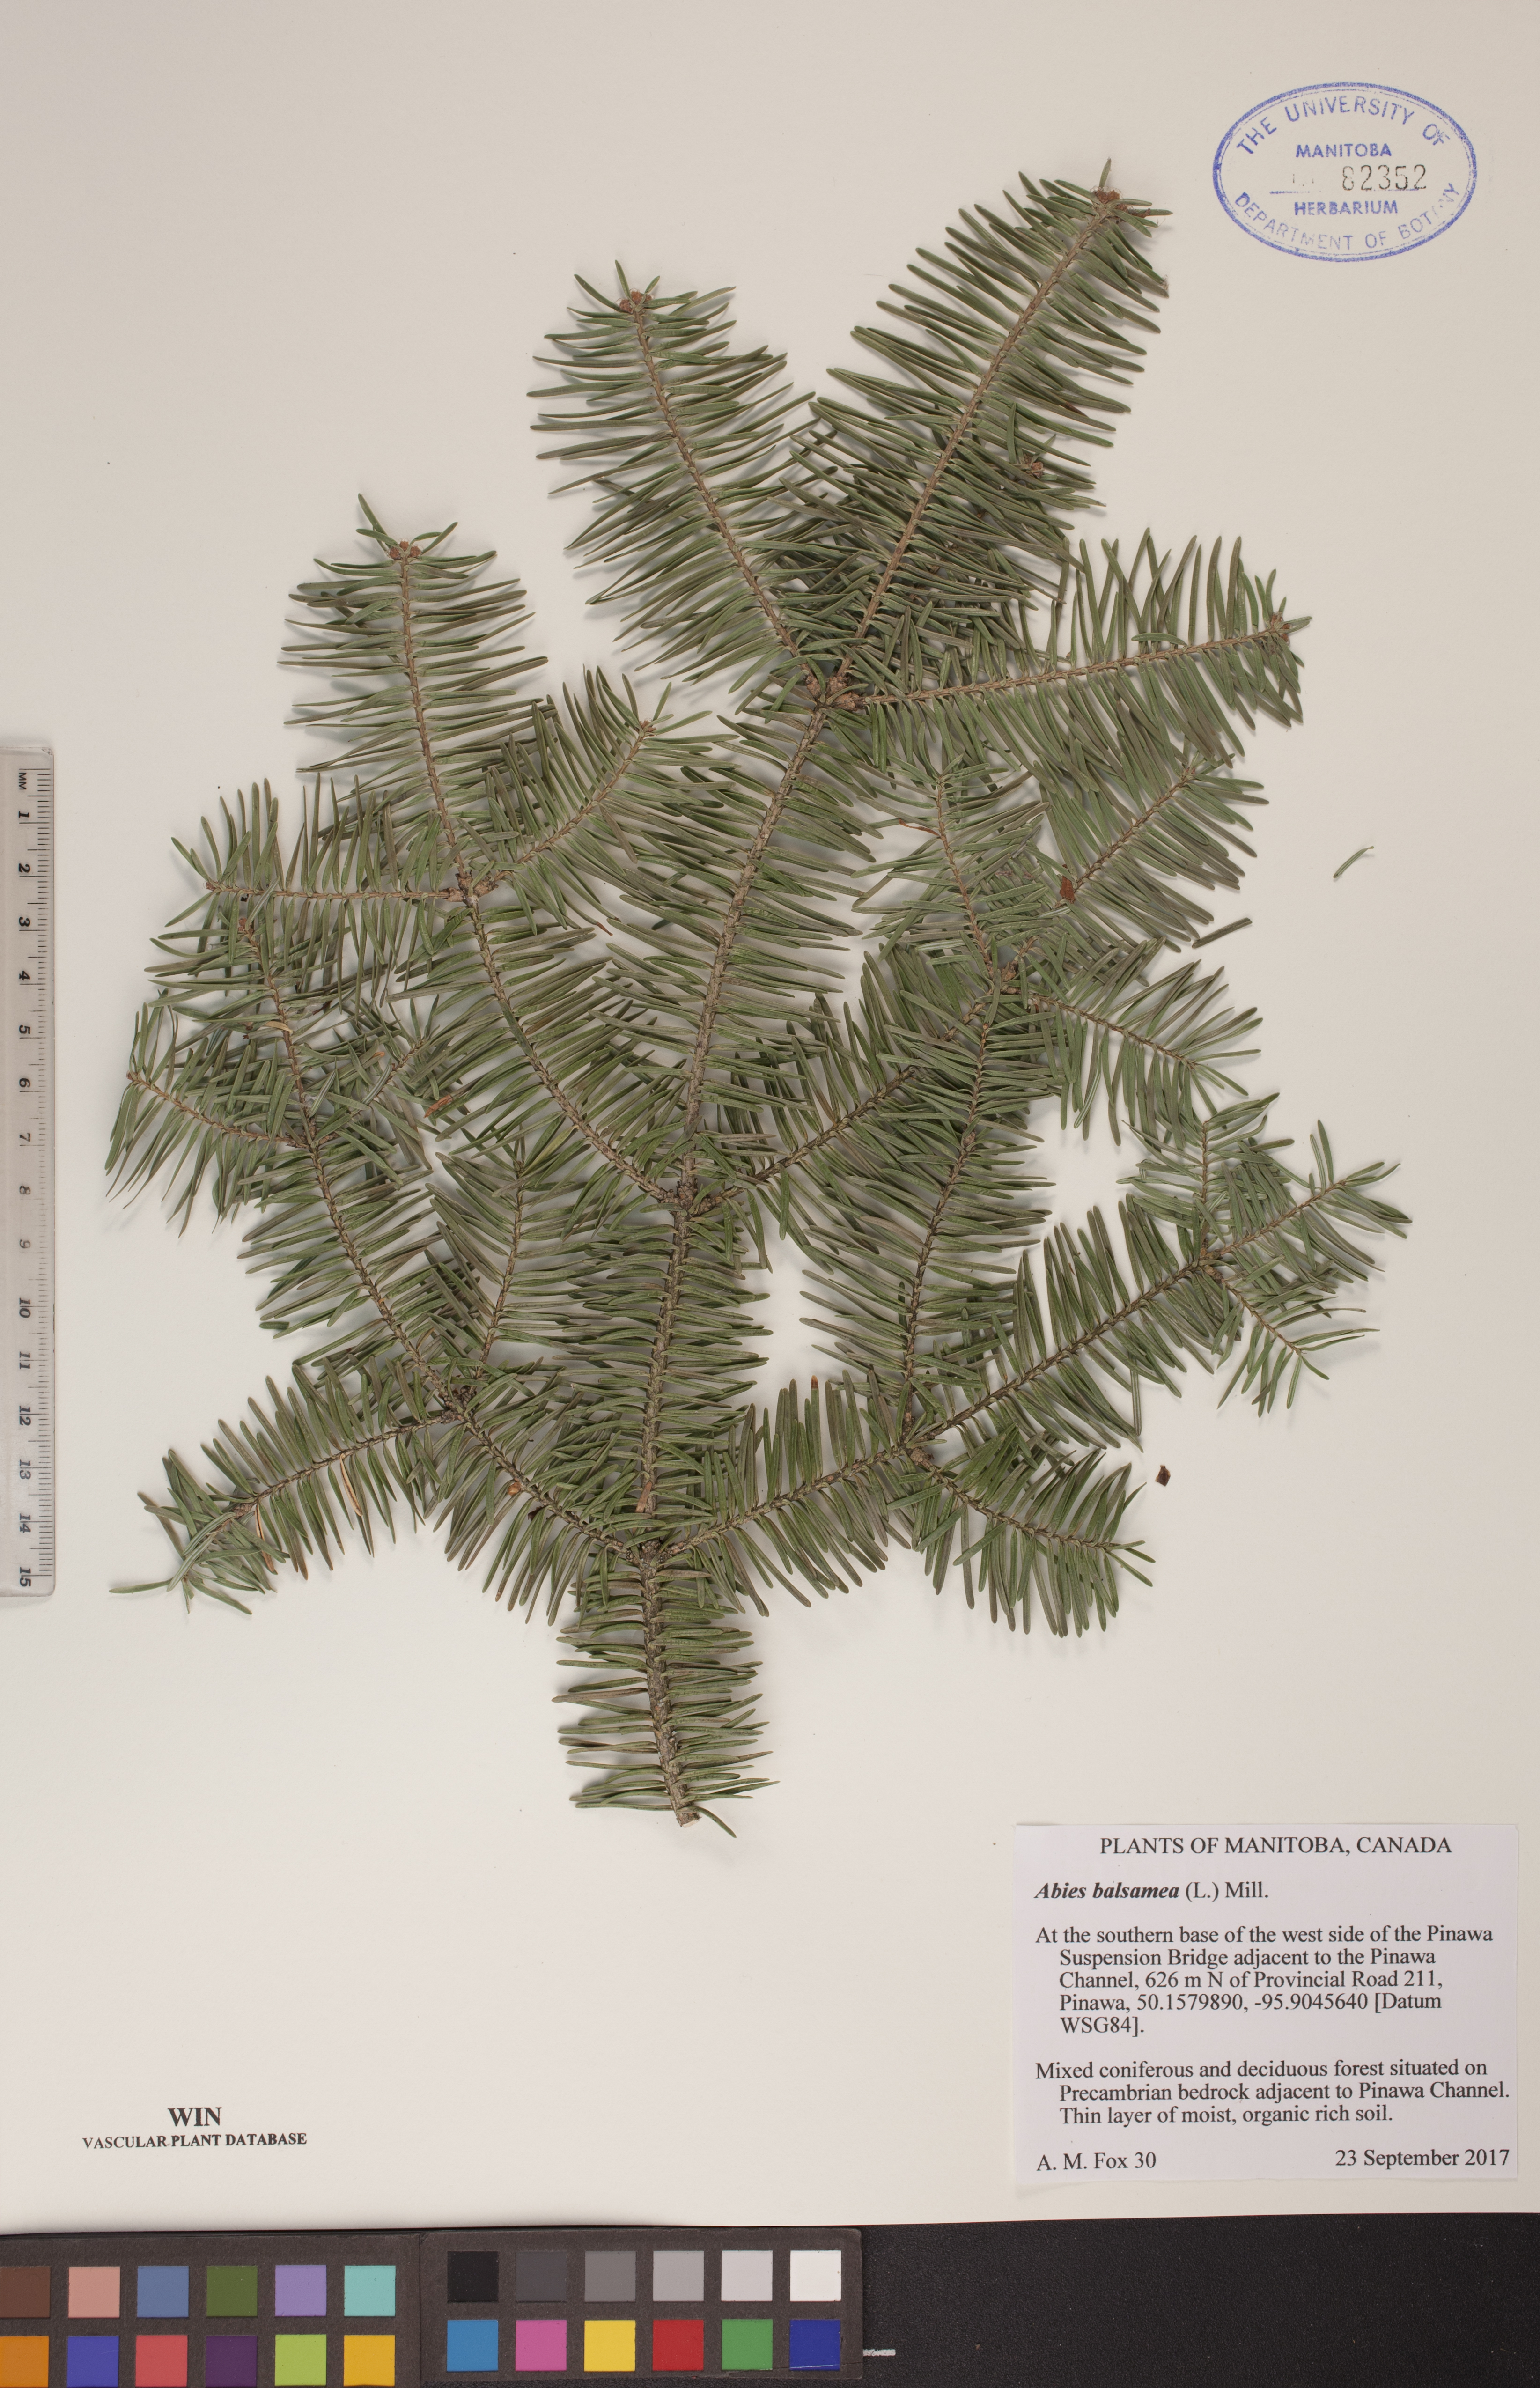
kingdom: Plantae
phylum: Tracheophyta
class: Pinopsida
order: Pinales
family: Pinaceae
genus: Abies
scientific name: Abies balsamea
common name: Balsam fir
